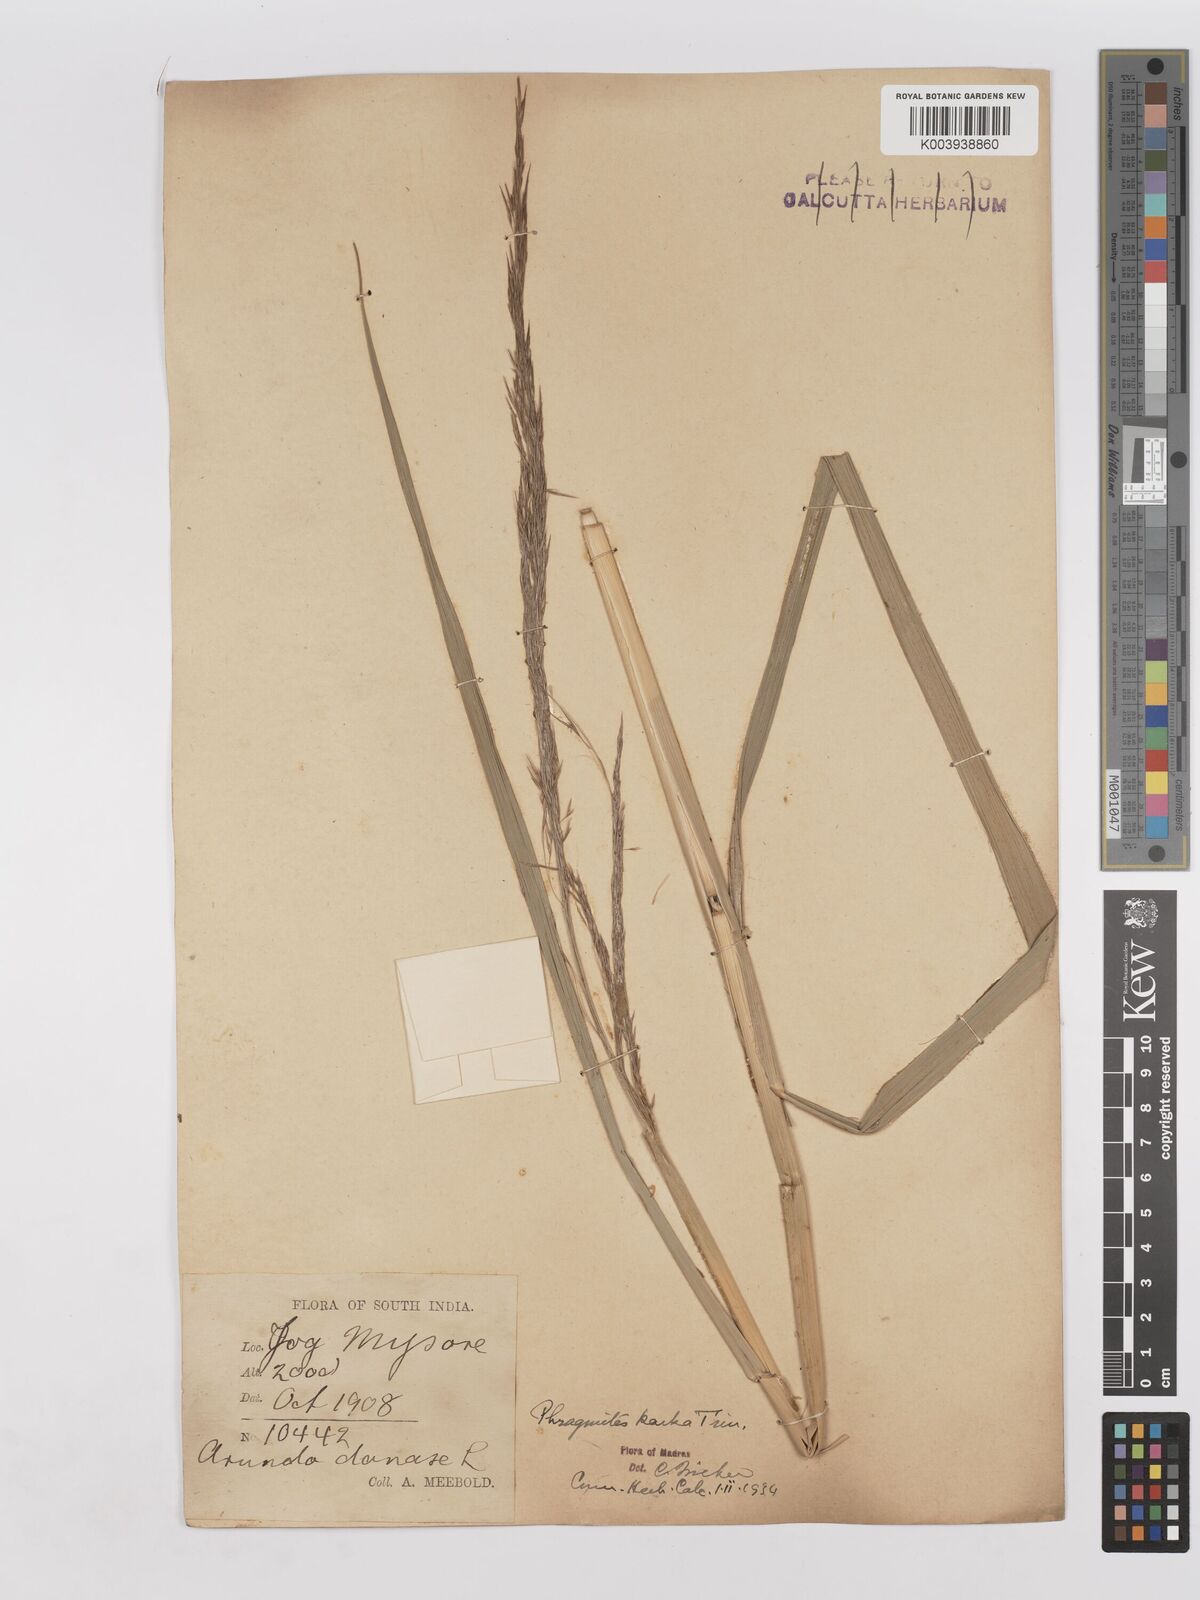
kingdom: Plantae
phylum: Tracheophyta
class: Liliopsida
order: Poales
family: Poaceae
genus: Phragmites
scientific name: Phragmites karka
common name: Tropical reed
